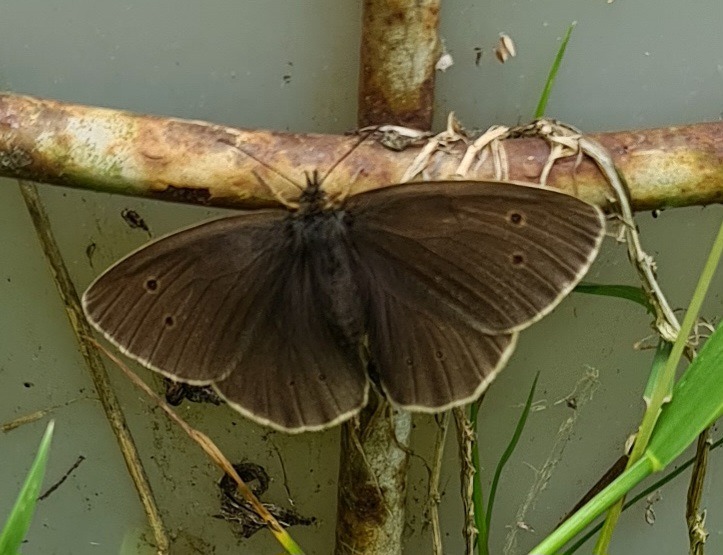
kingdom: Animalia
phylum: Arthropoda
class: Insecta
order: Lepidoptera
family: Nymphalidae
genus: Aphantopus
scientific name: Aphantopus hyperantus
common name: Engrandøje
